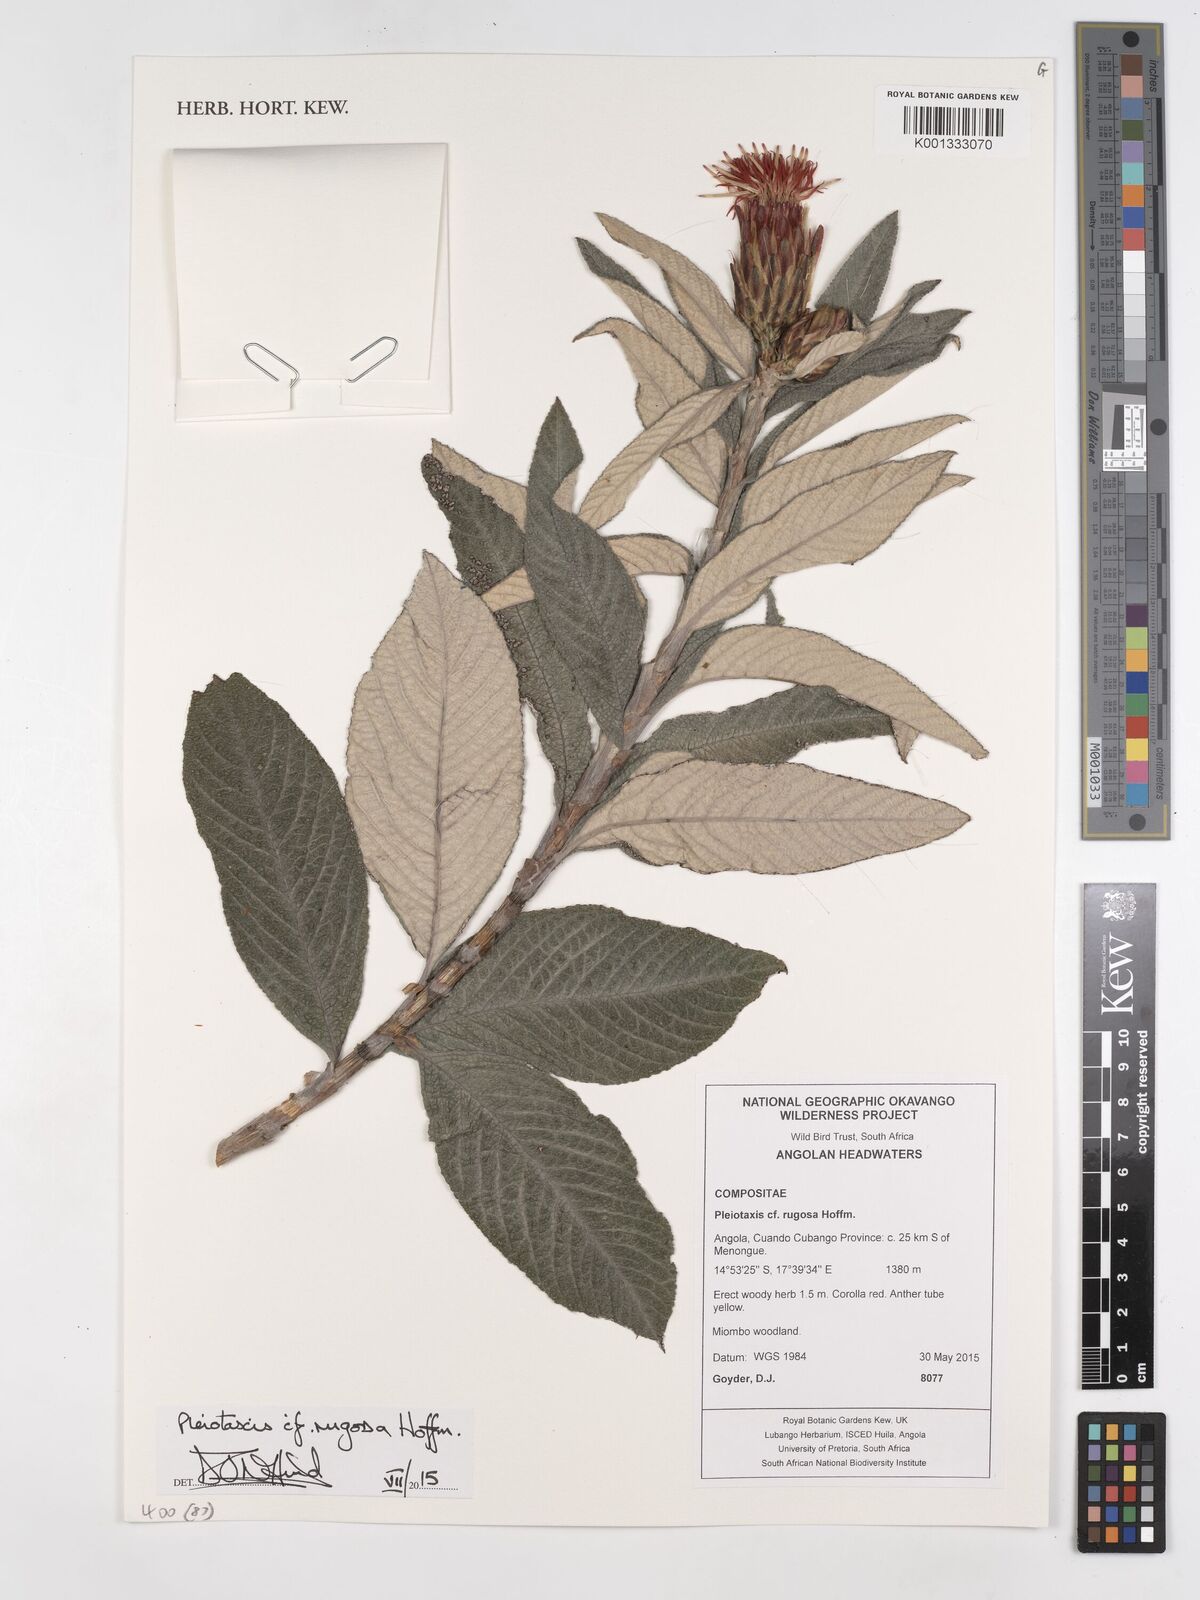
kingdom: Plantae
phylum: Tracheophyta
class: Magnoliopsida
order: Asterales
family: Asteraceae
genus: Pleiotaxis
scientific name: Pleiotaxis rugosa
